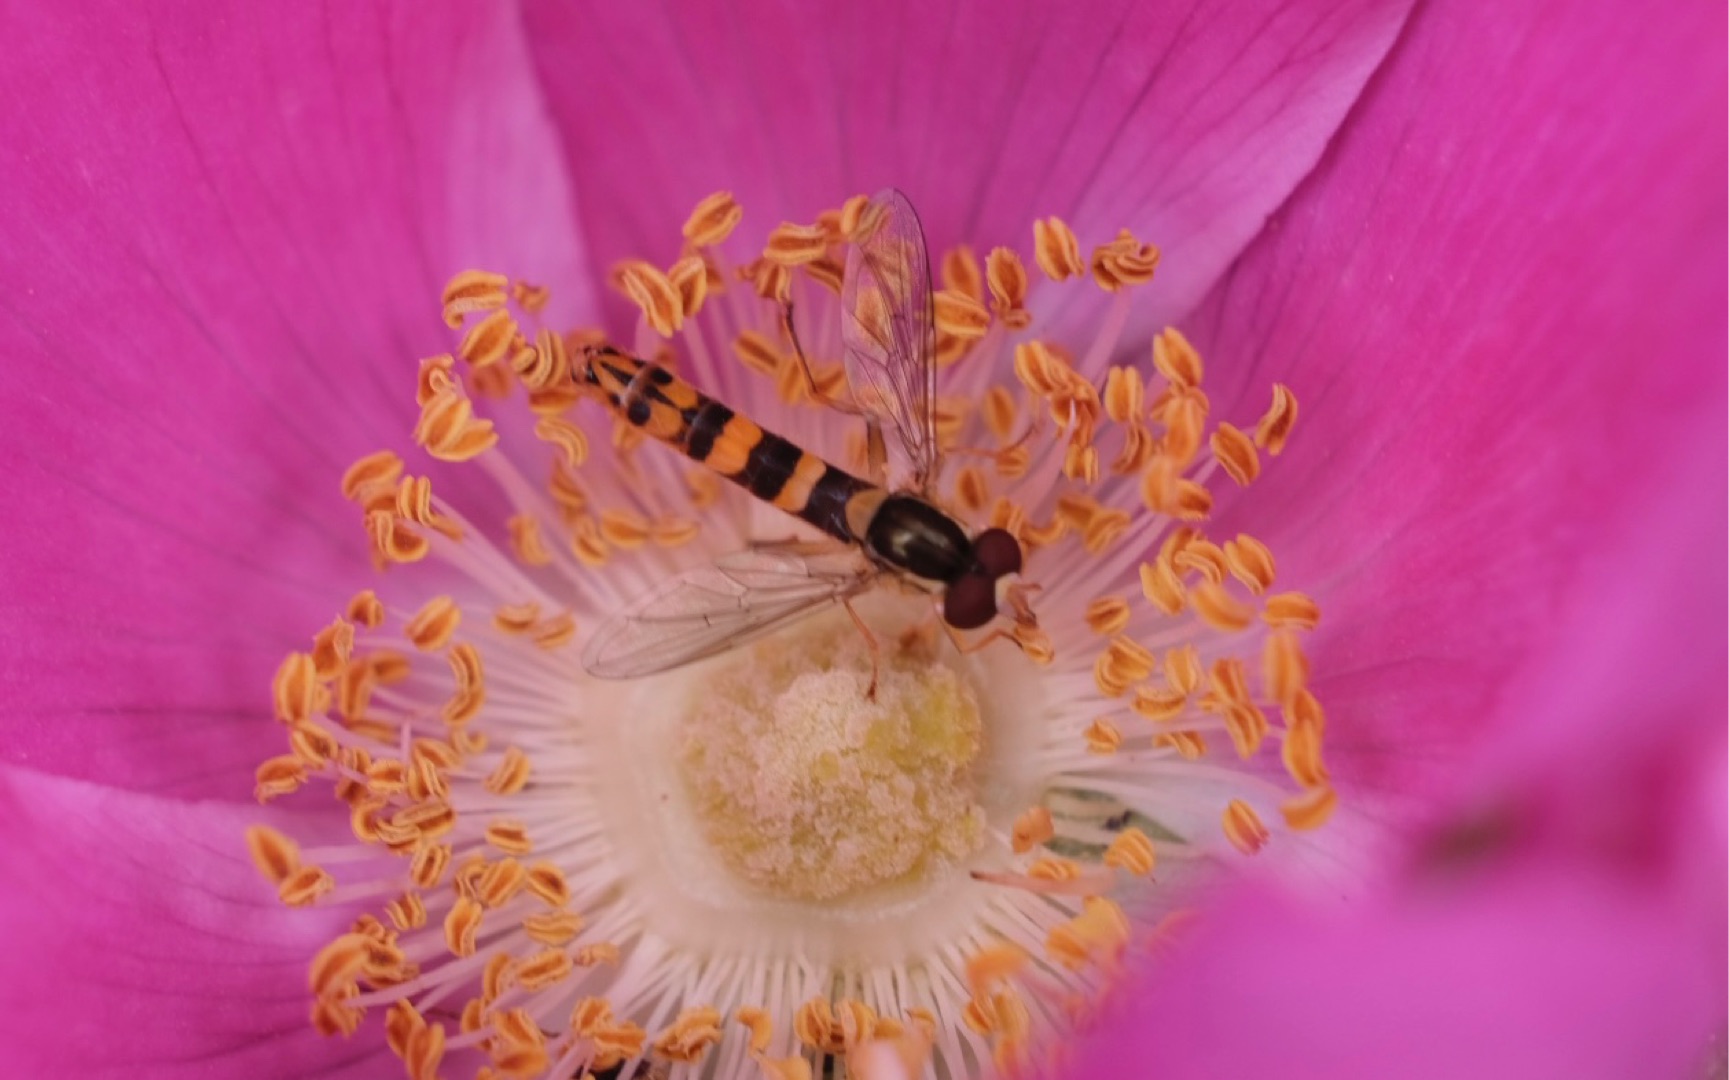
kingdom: Animalia
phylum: Arthropoda
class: Insecta
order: Diptera
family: Syrphidae
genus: Sphaerophoria
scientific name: Sphaerophoria scripta
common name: Almindelig kuglebærerflue
